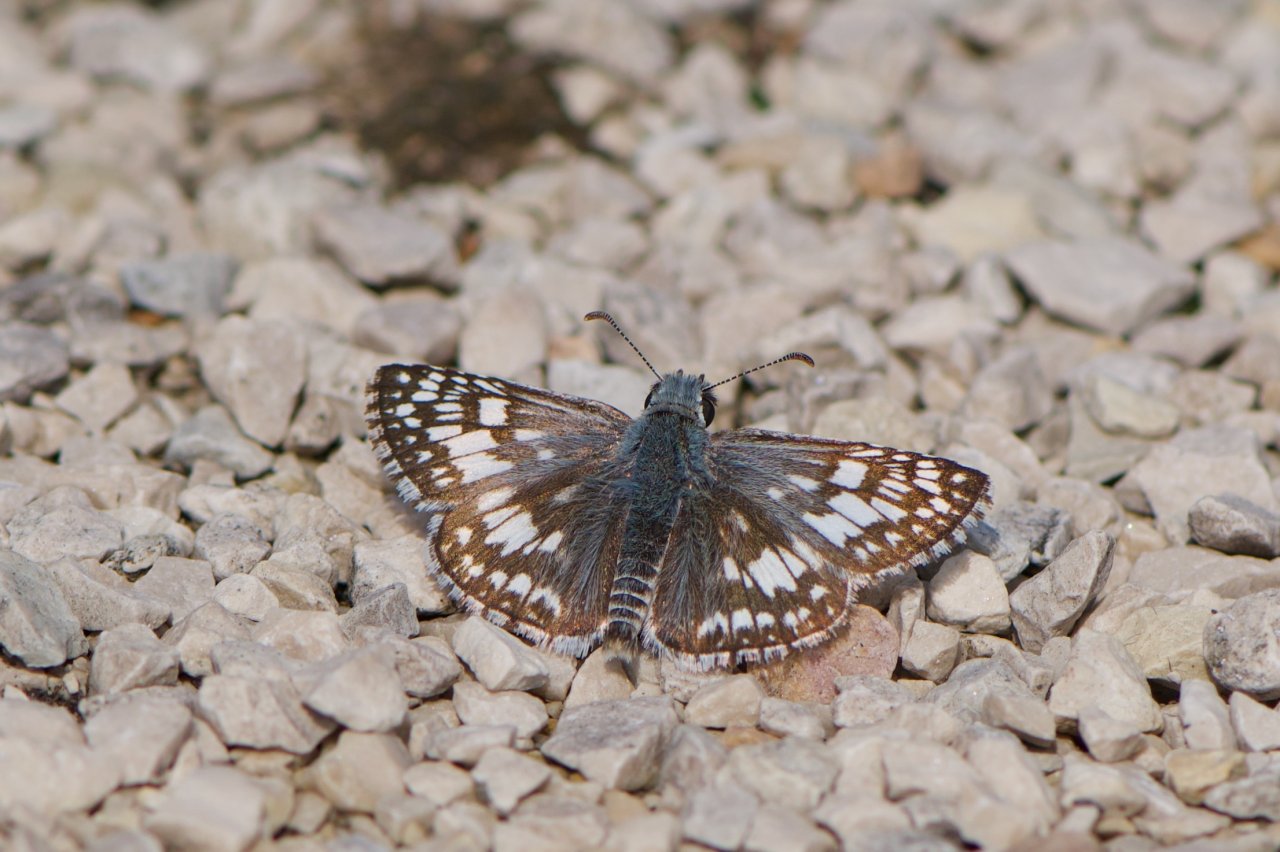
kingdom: Animalia
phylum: Arthropoda
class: Insecta
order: Lepidoptera
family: Hesperiidae
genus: Pyrgus
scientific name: Pyrgus communis
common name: Common Checkered-Skipper
